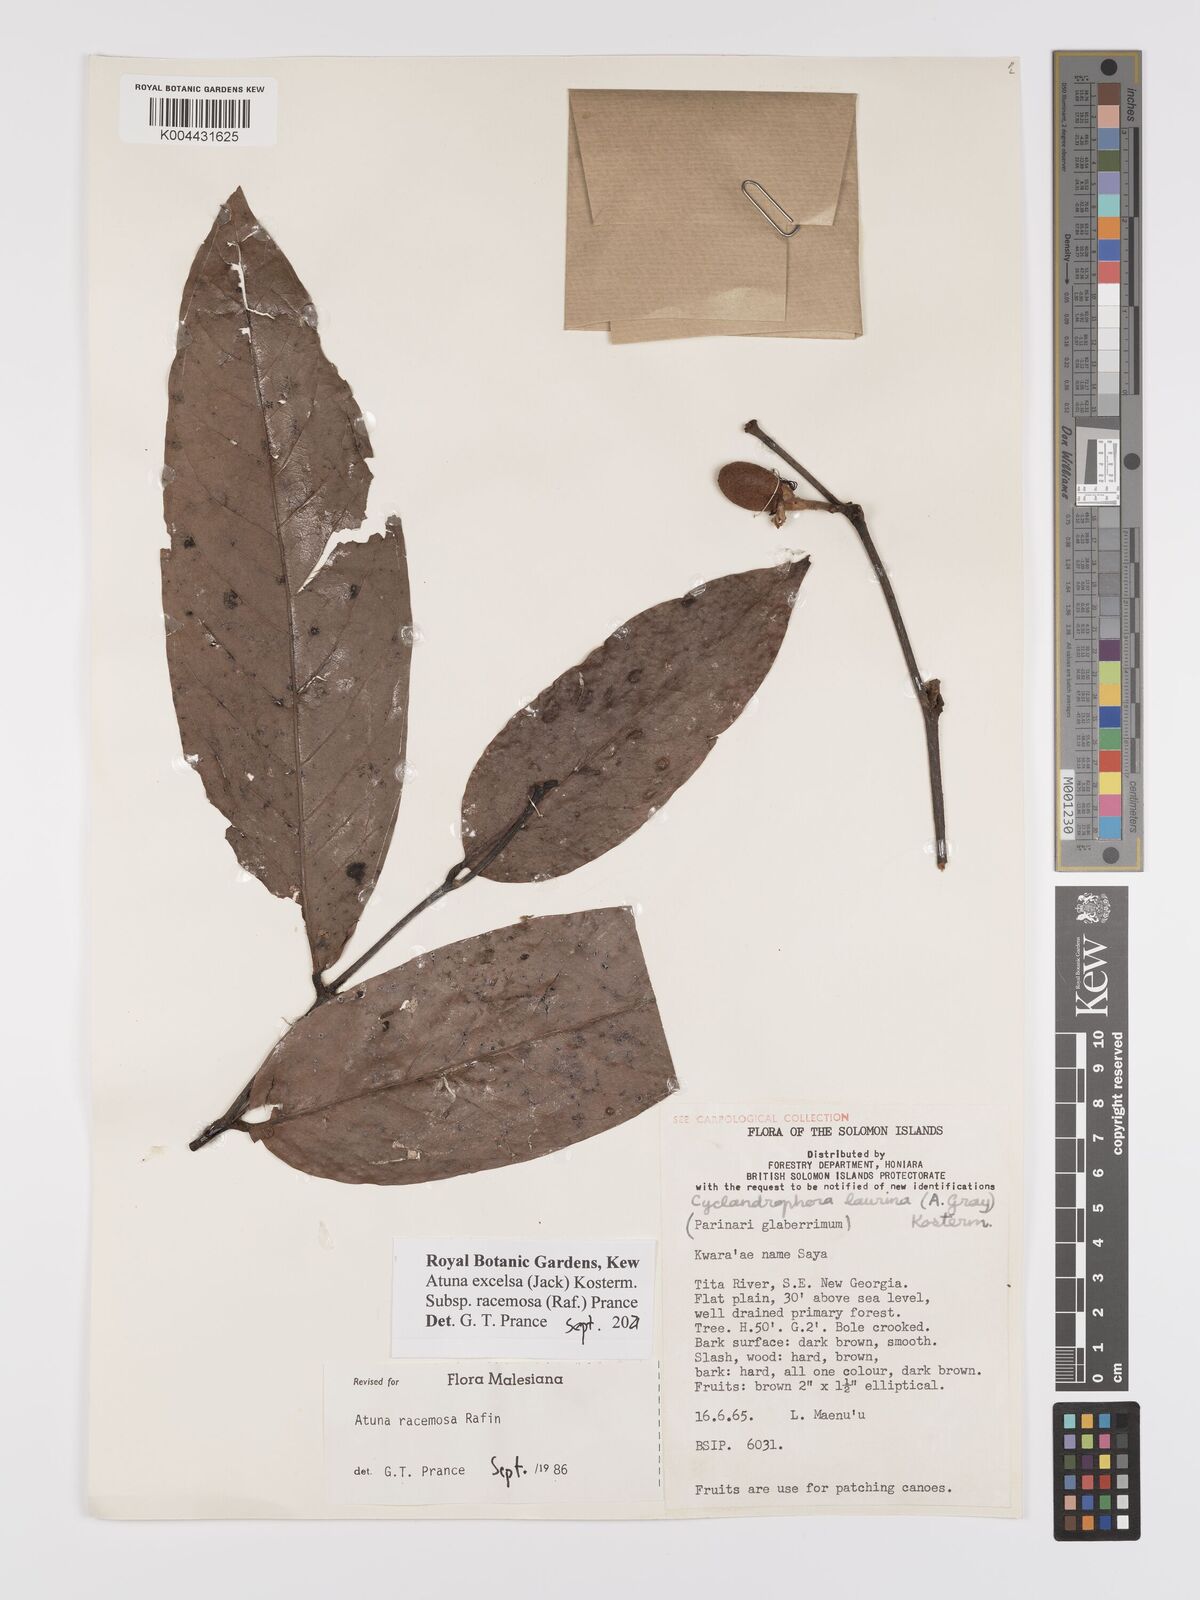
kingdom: Plantae
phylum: Tracheophyta
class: Magnoliopsida
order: Malpighiales
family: Chrysobalanaceae
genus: Atuna
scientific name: Atuna excelsa
